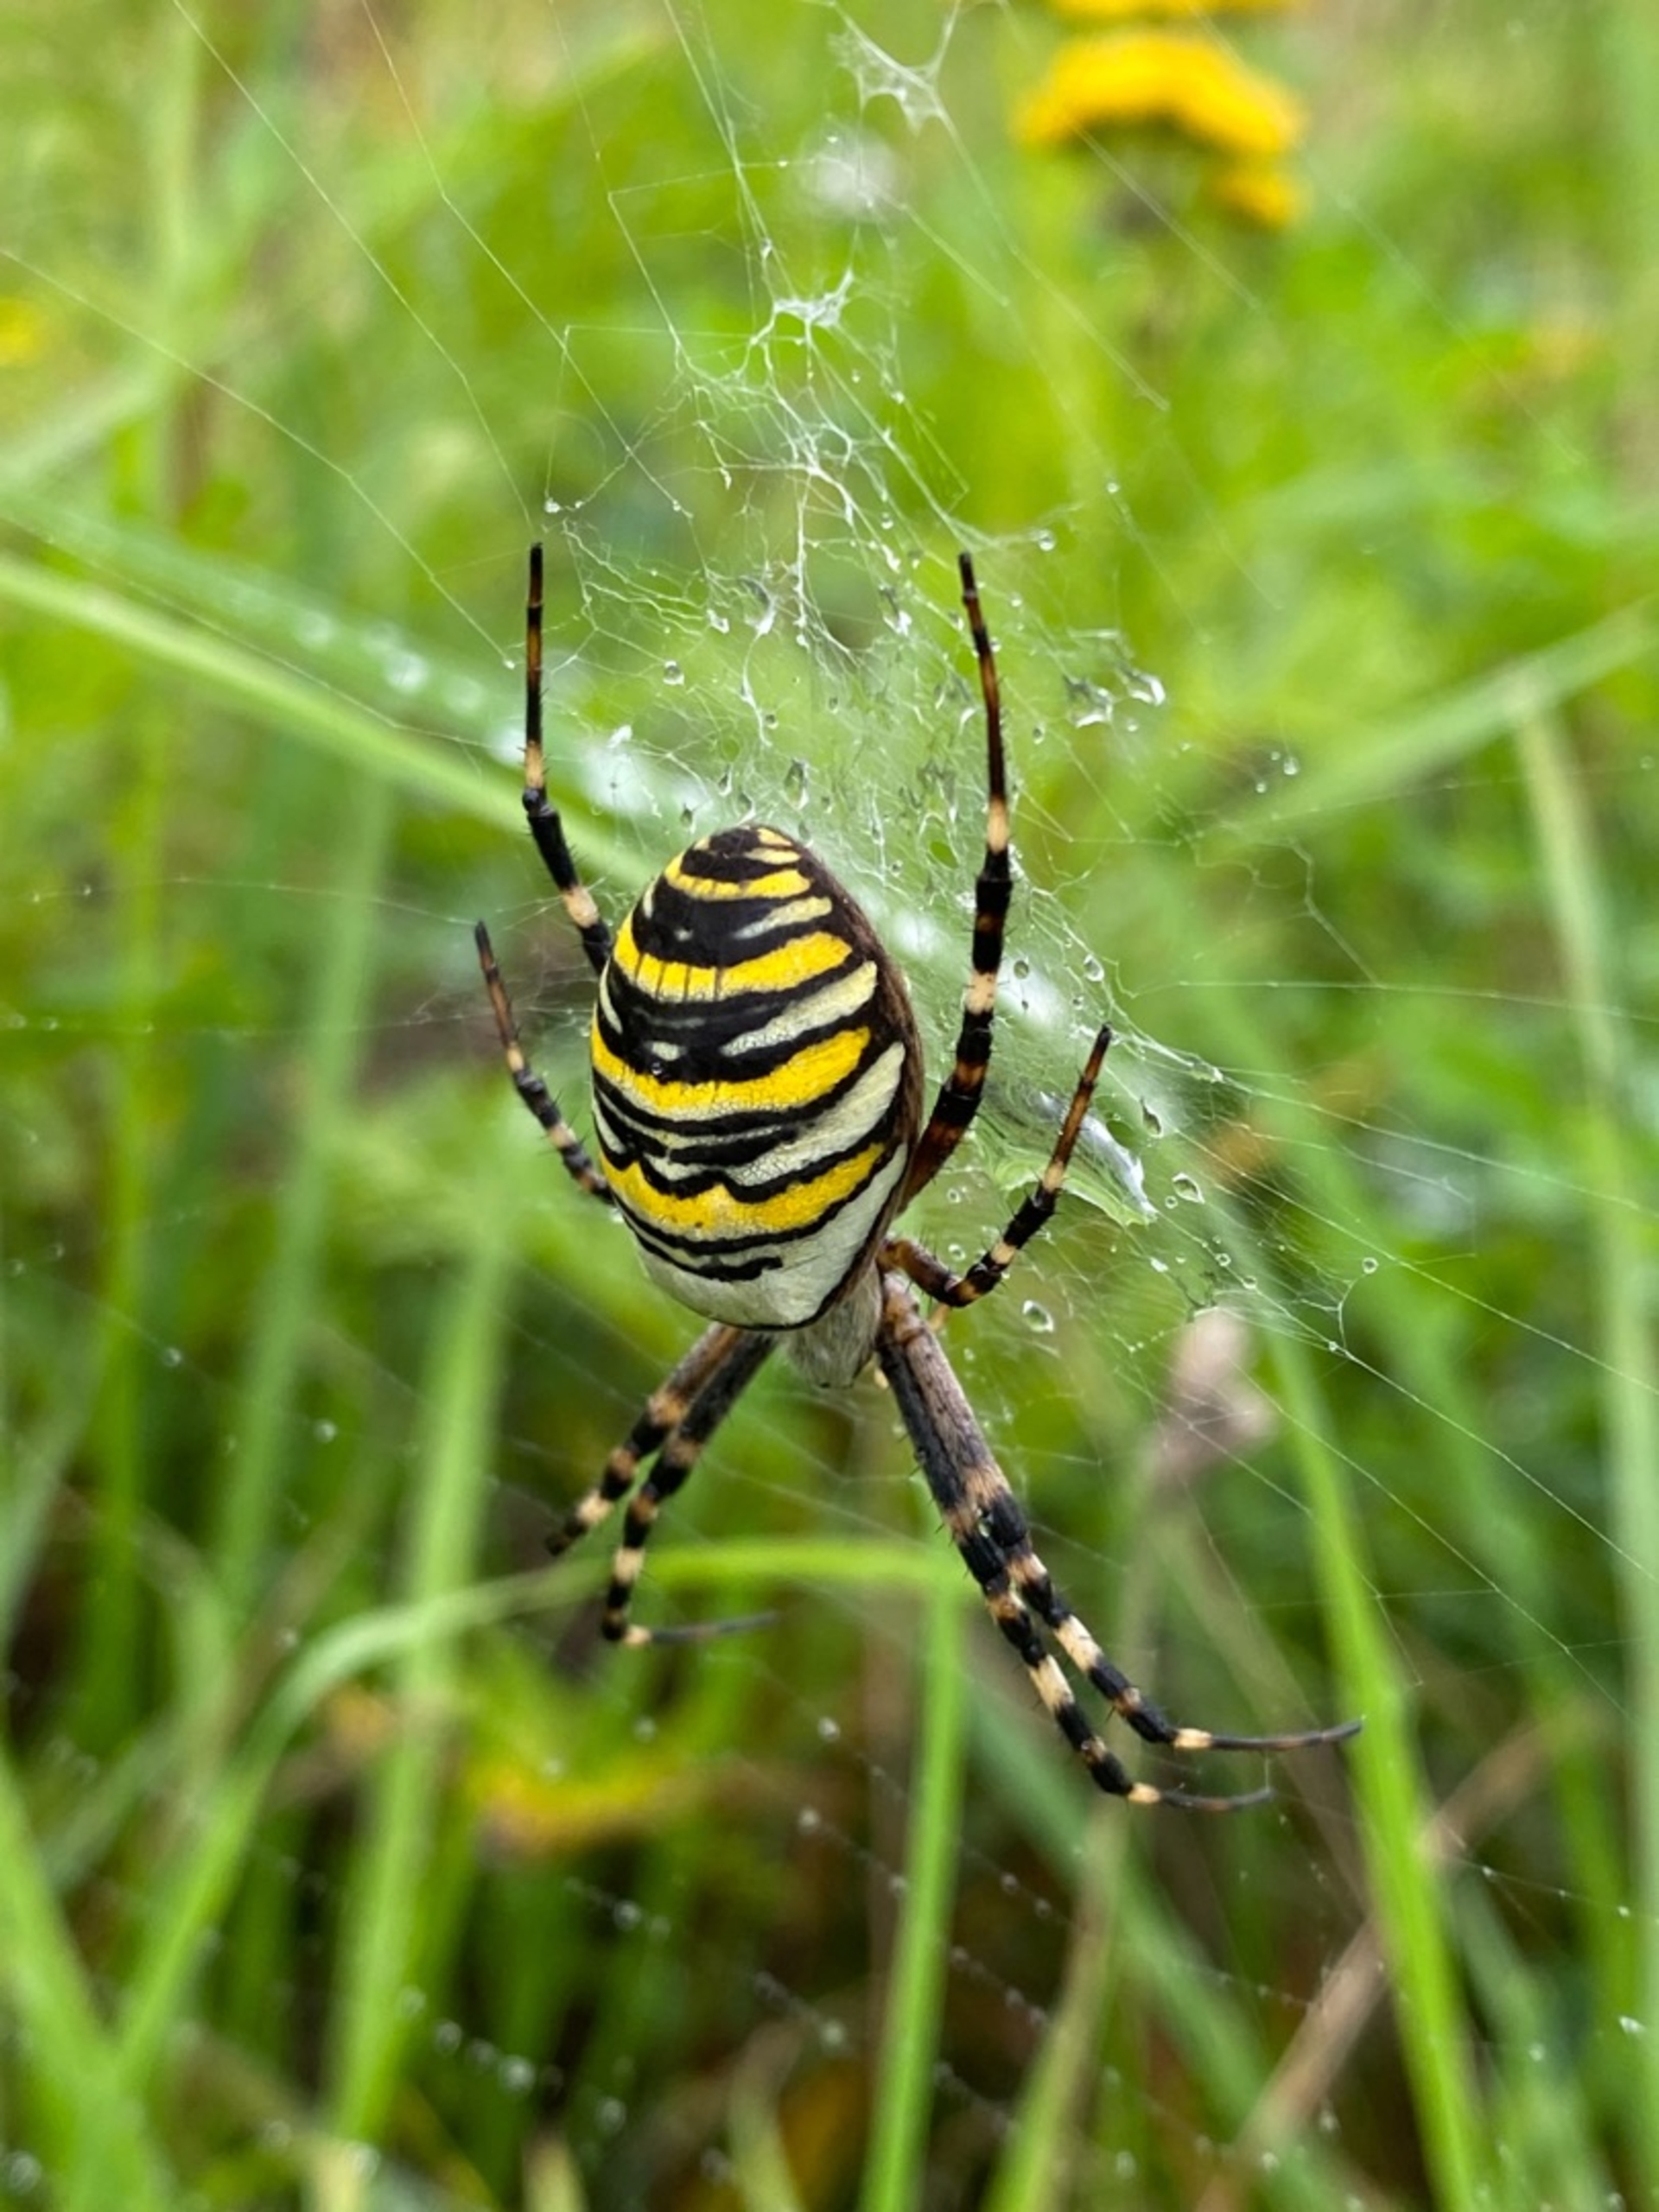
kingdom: Animalia
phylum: Arthropoda
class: Arachnida
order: Araneae
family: Araneidae
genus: Argiope
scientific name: Argiope bruennichi
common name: Hvepseedderkop
